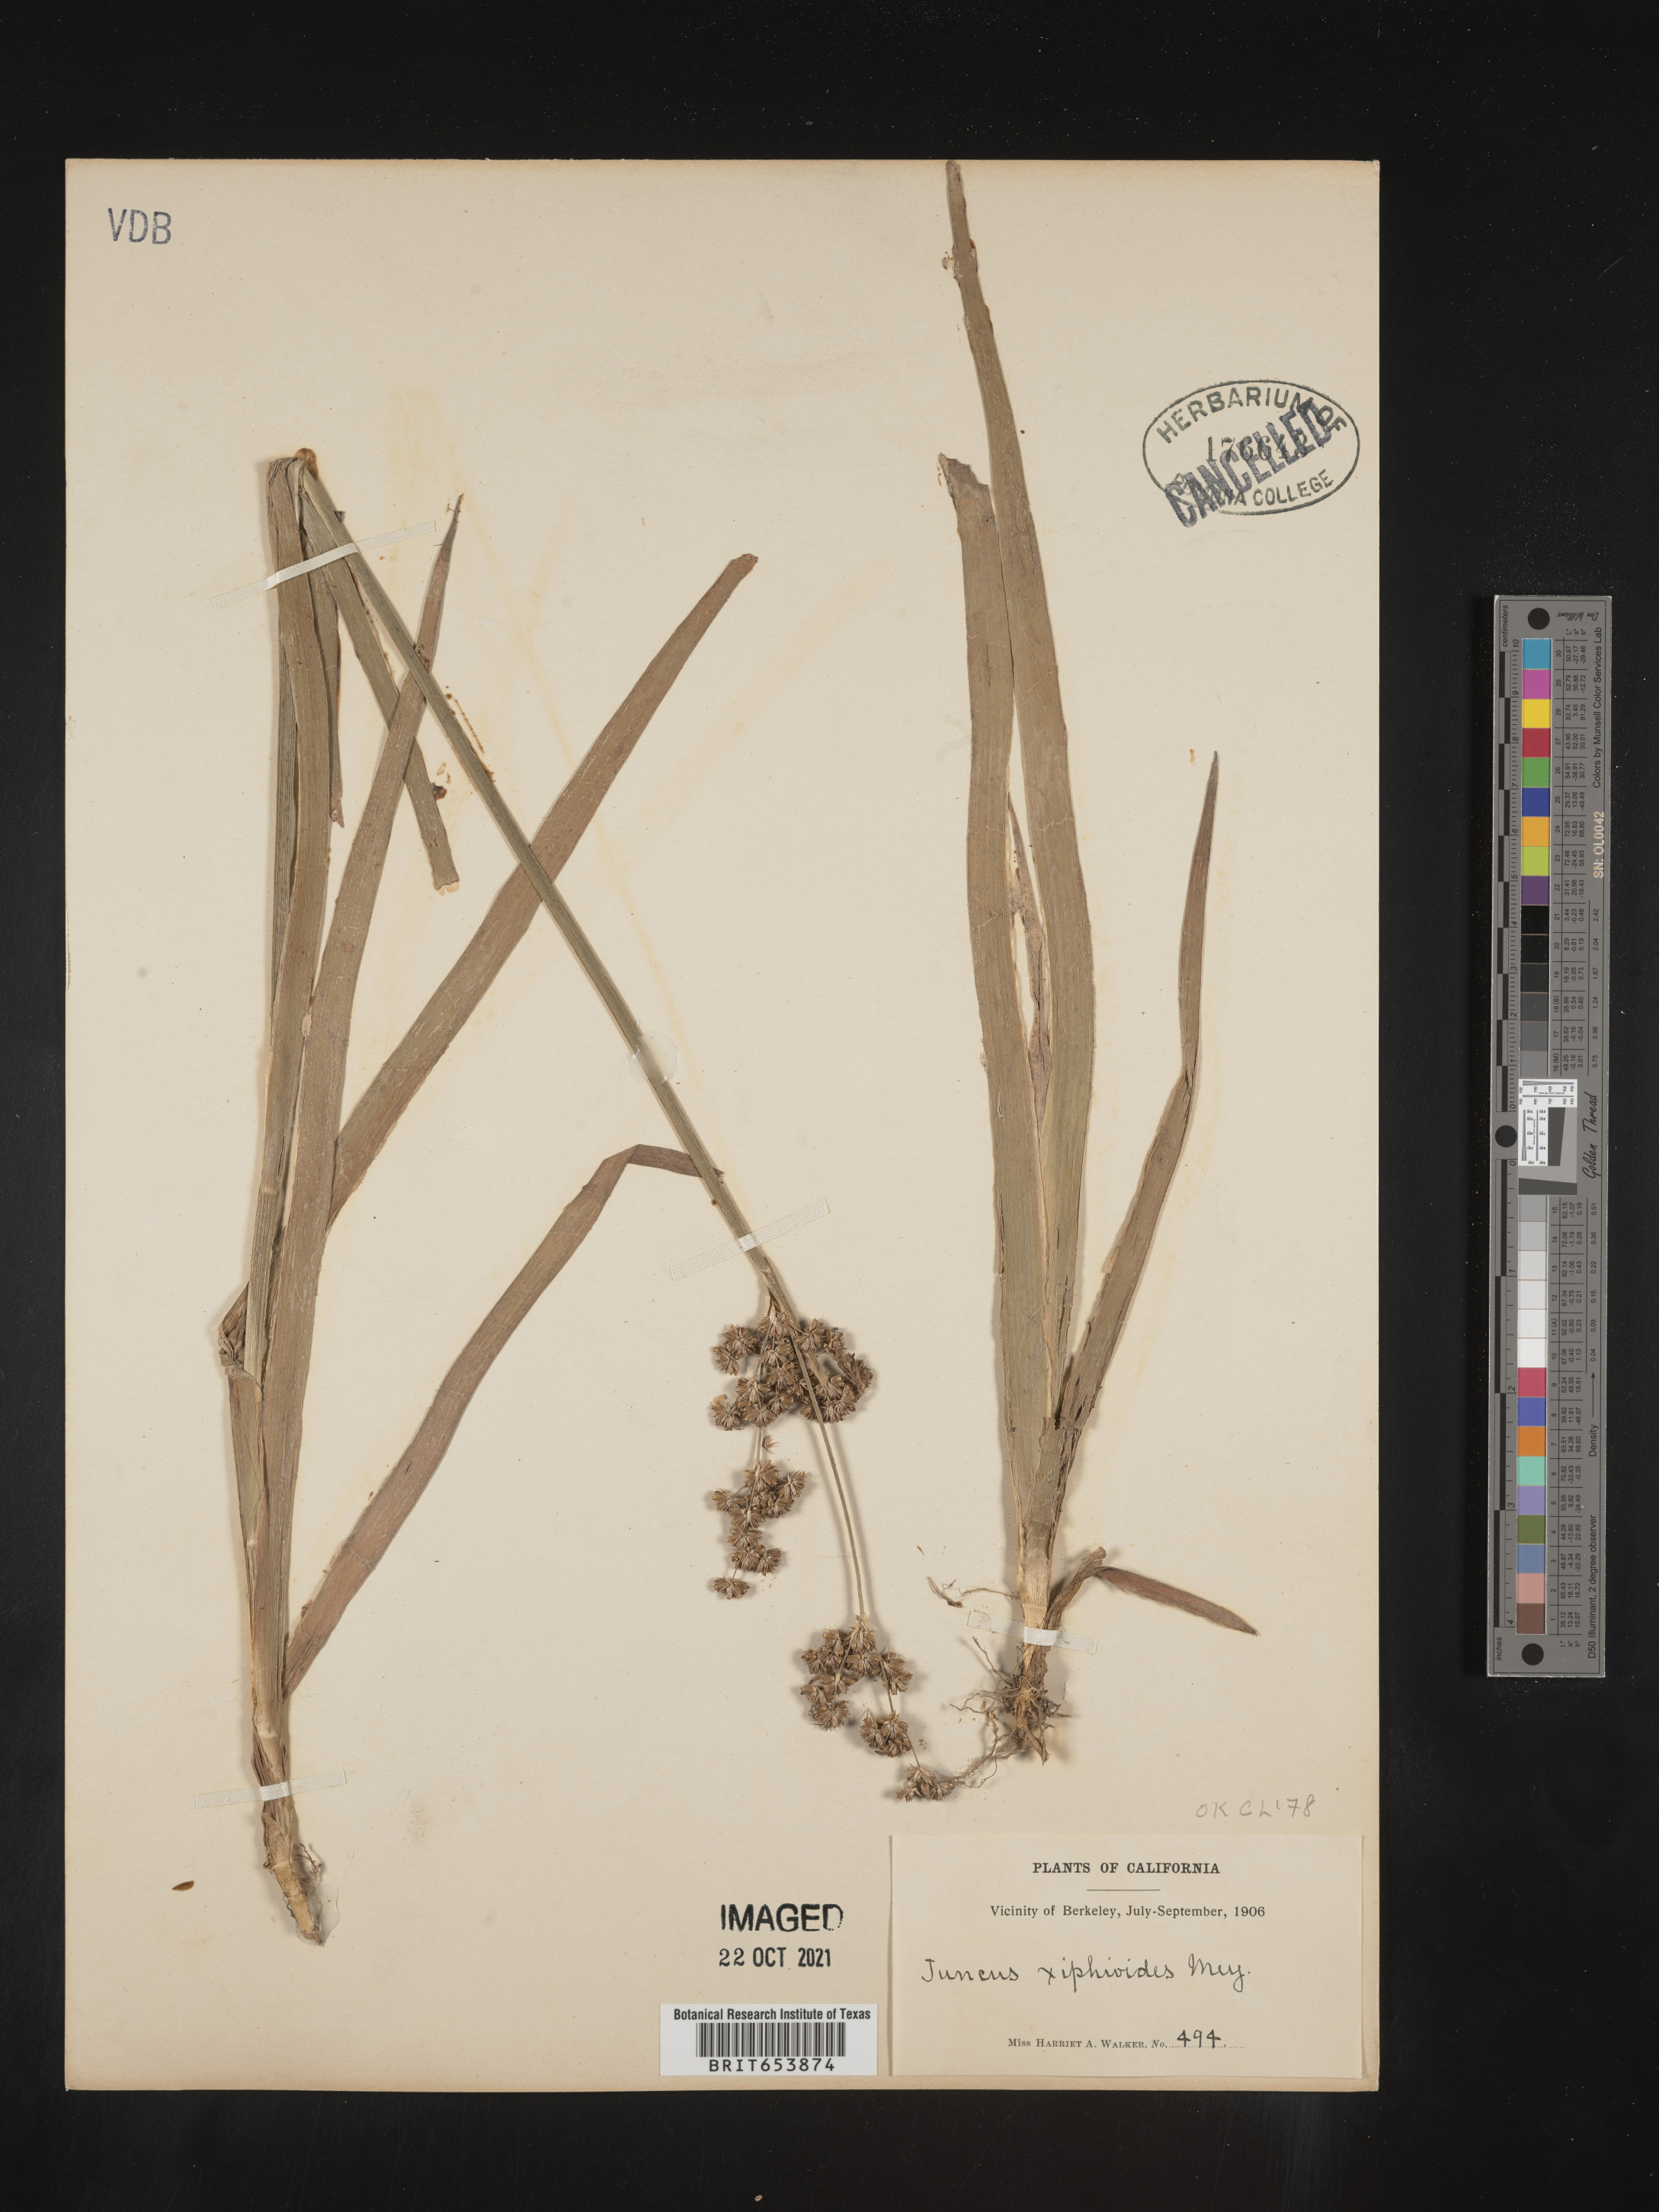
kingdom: Plantae
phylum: Tracheophyta
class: Liliopsida
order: Poales
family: Juncaceae
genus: Juncus
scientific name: Juncus xiphioides
